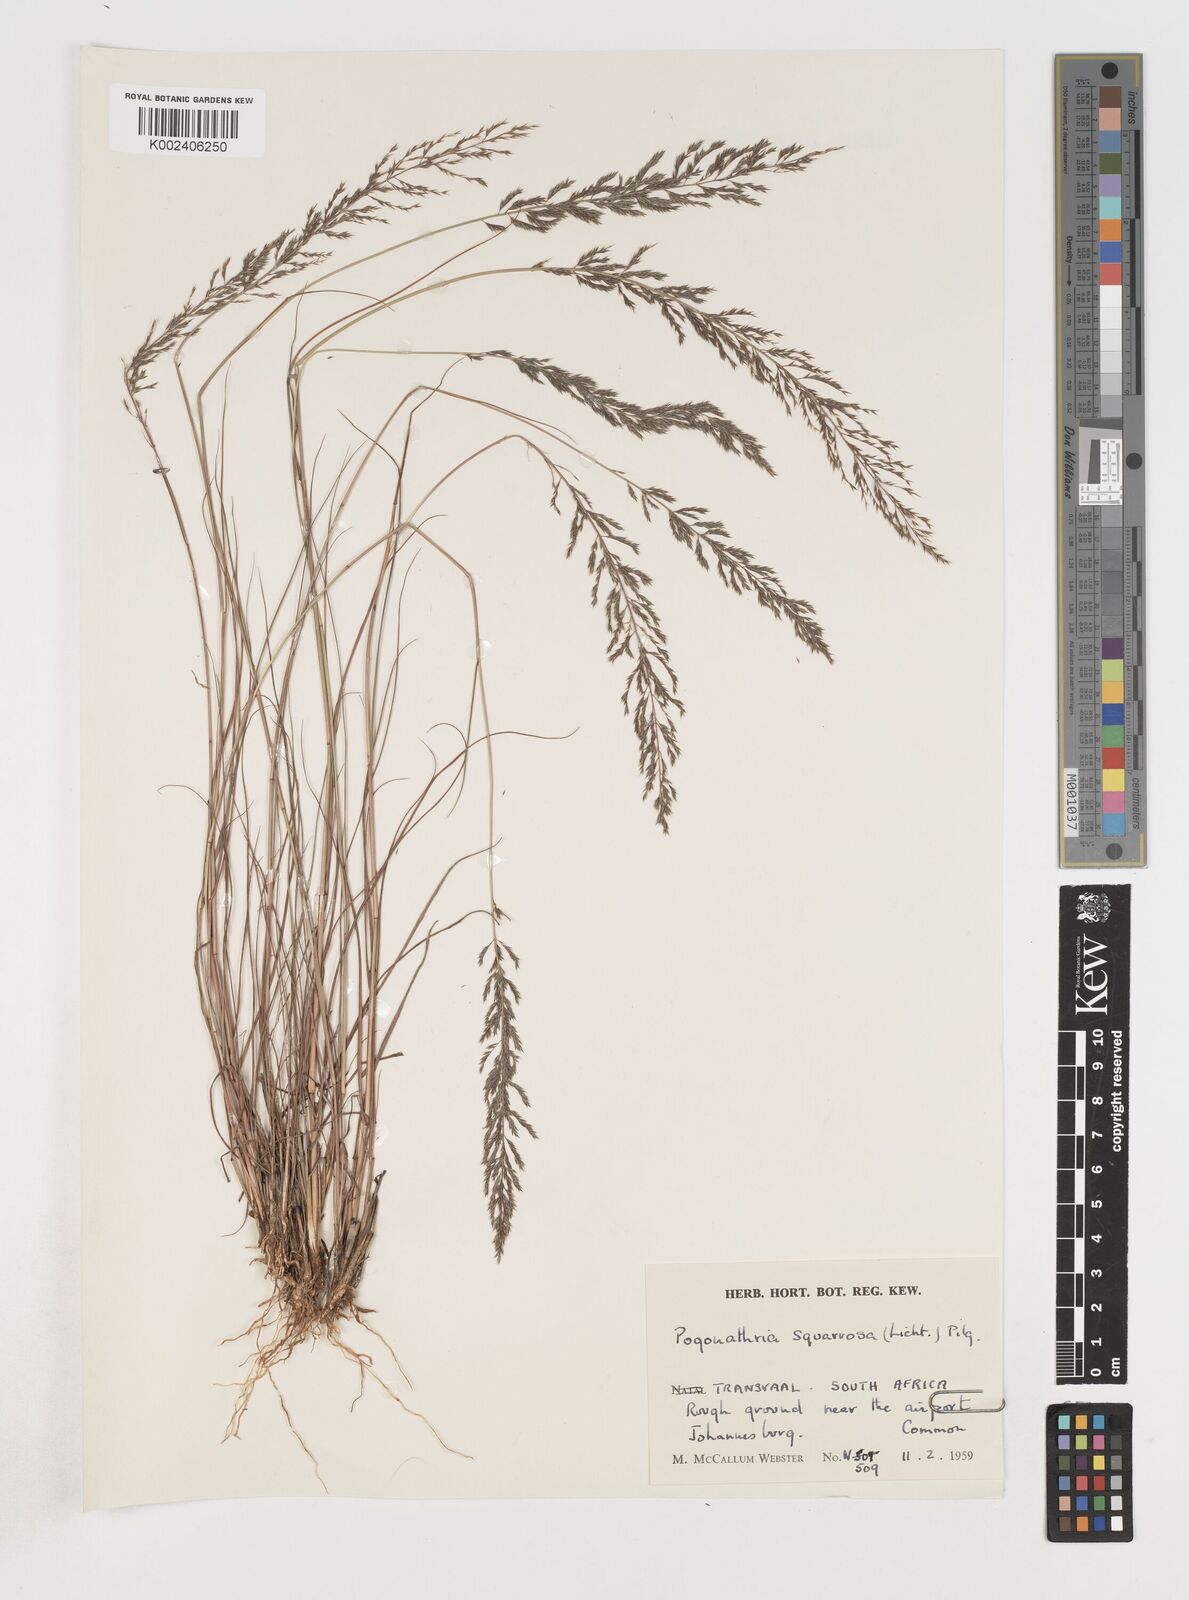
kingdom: Plantae
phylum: Tracheophyta
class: Liliopsida
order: Poales
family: Poaceae
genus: Pogonarthria
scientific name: Pogonarthria squarrosa
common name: Grass
